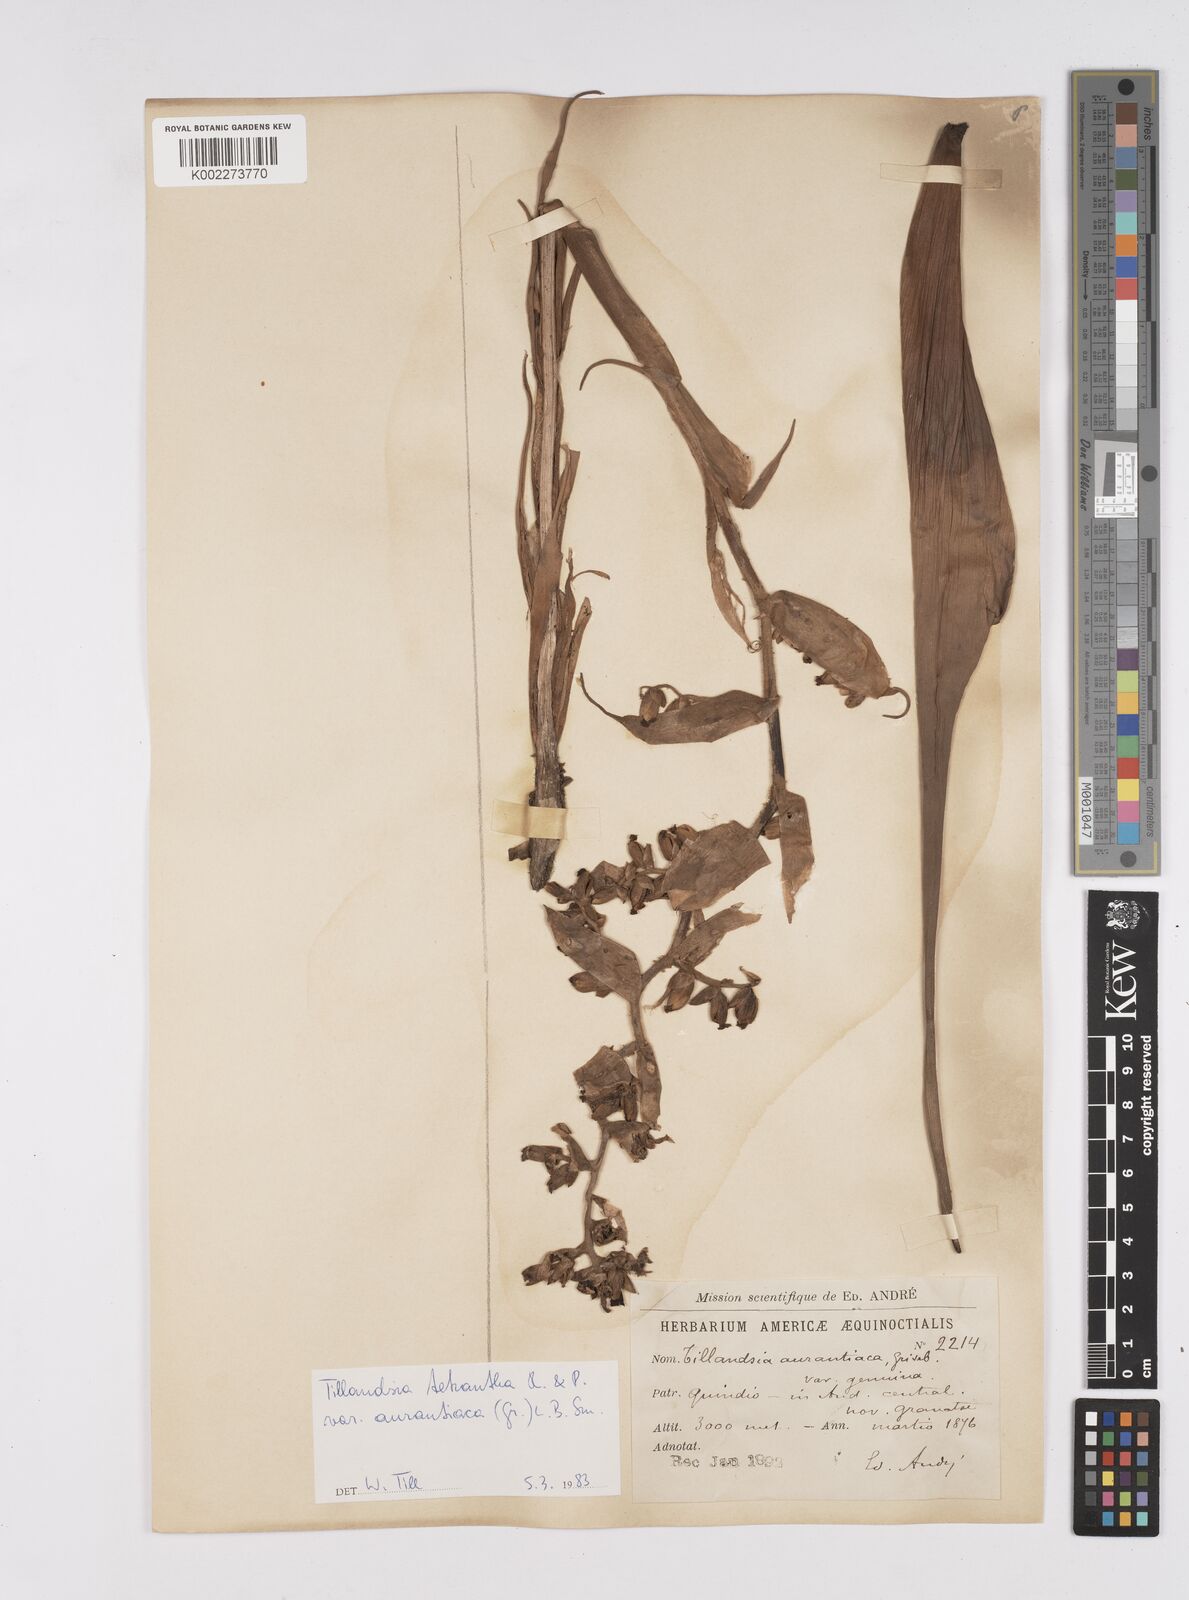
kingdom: Plantae
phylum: Tracheophyta
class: Liliopsida
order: Poales
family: Bromeliaceae
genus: Racinaea
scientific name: Racinaea tetrantha
